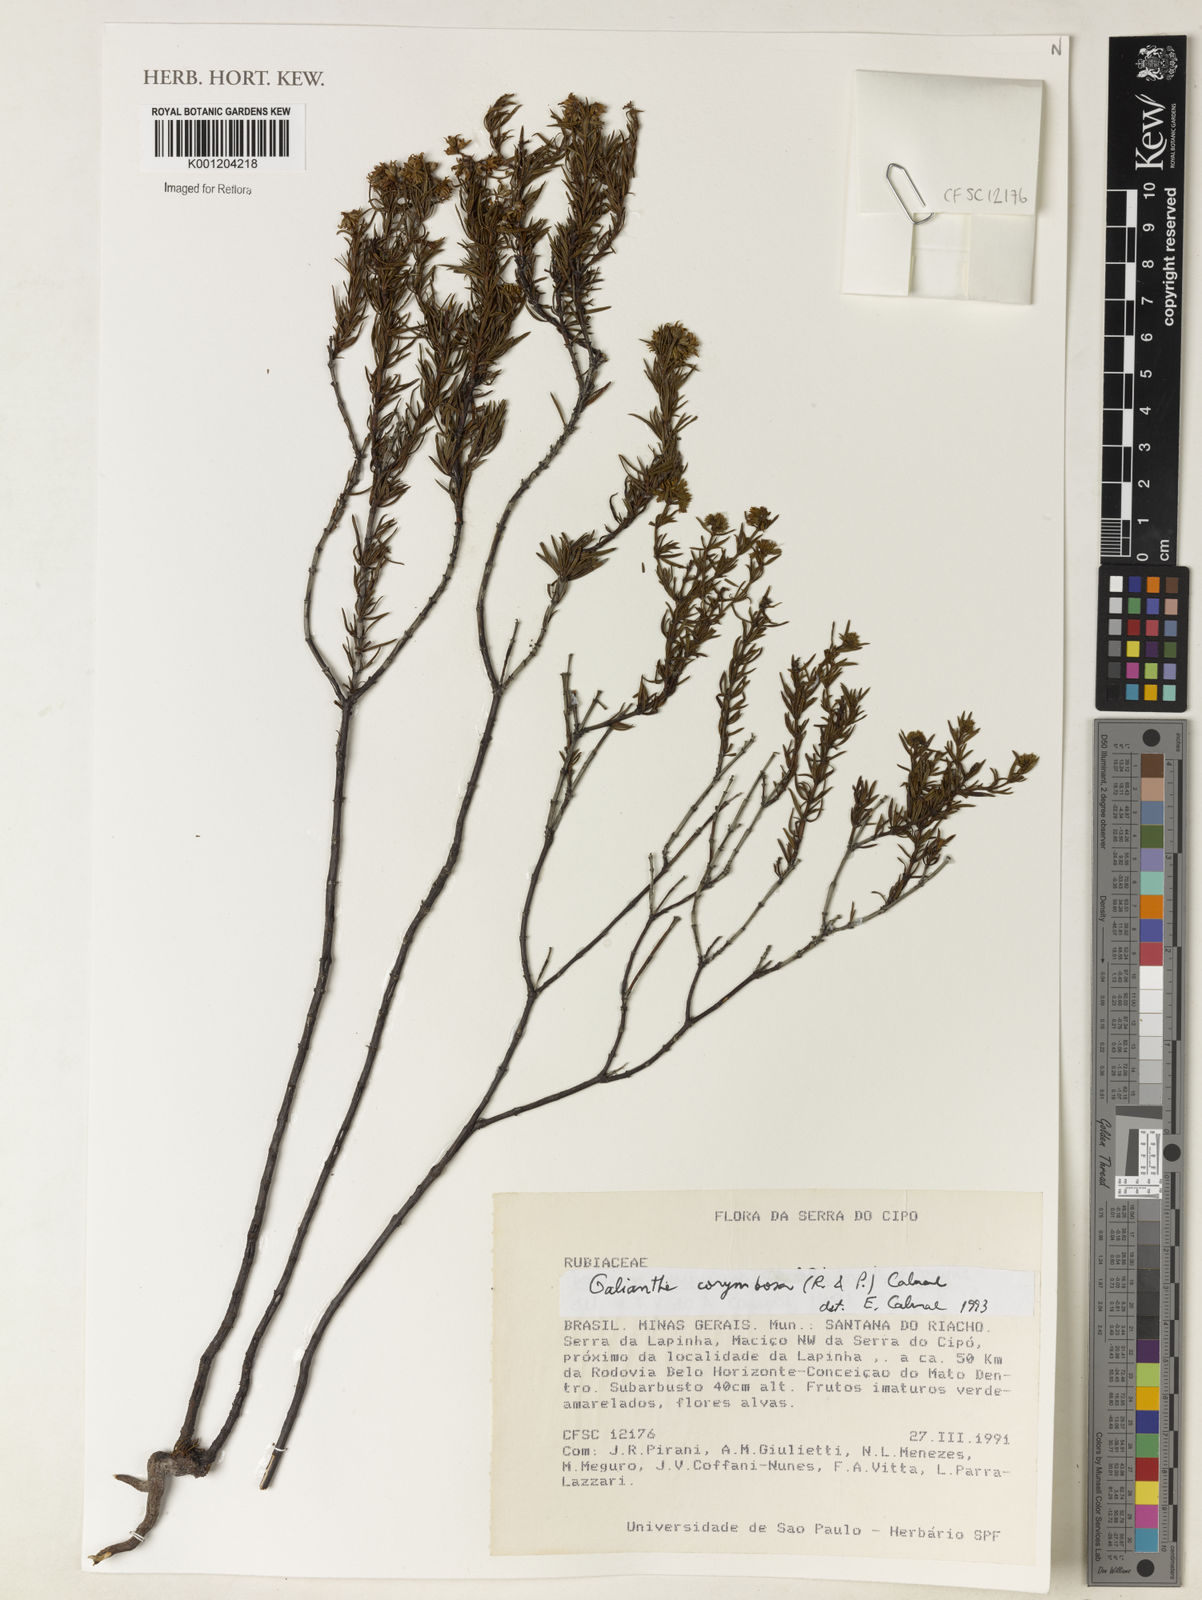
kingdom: Plantae
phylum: Tracheophyta
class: Magnoliopsida
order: Gentianales
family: Rubiaceae
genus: Galianthe
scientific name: Galianthe peruviana
